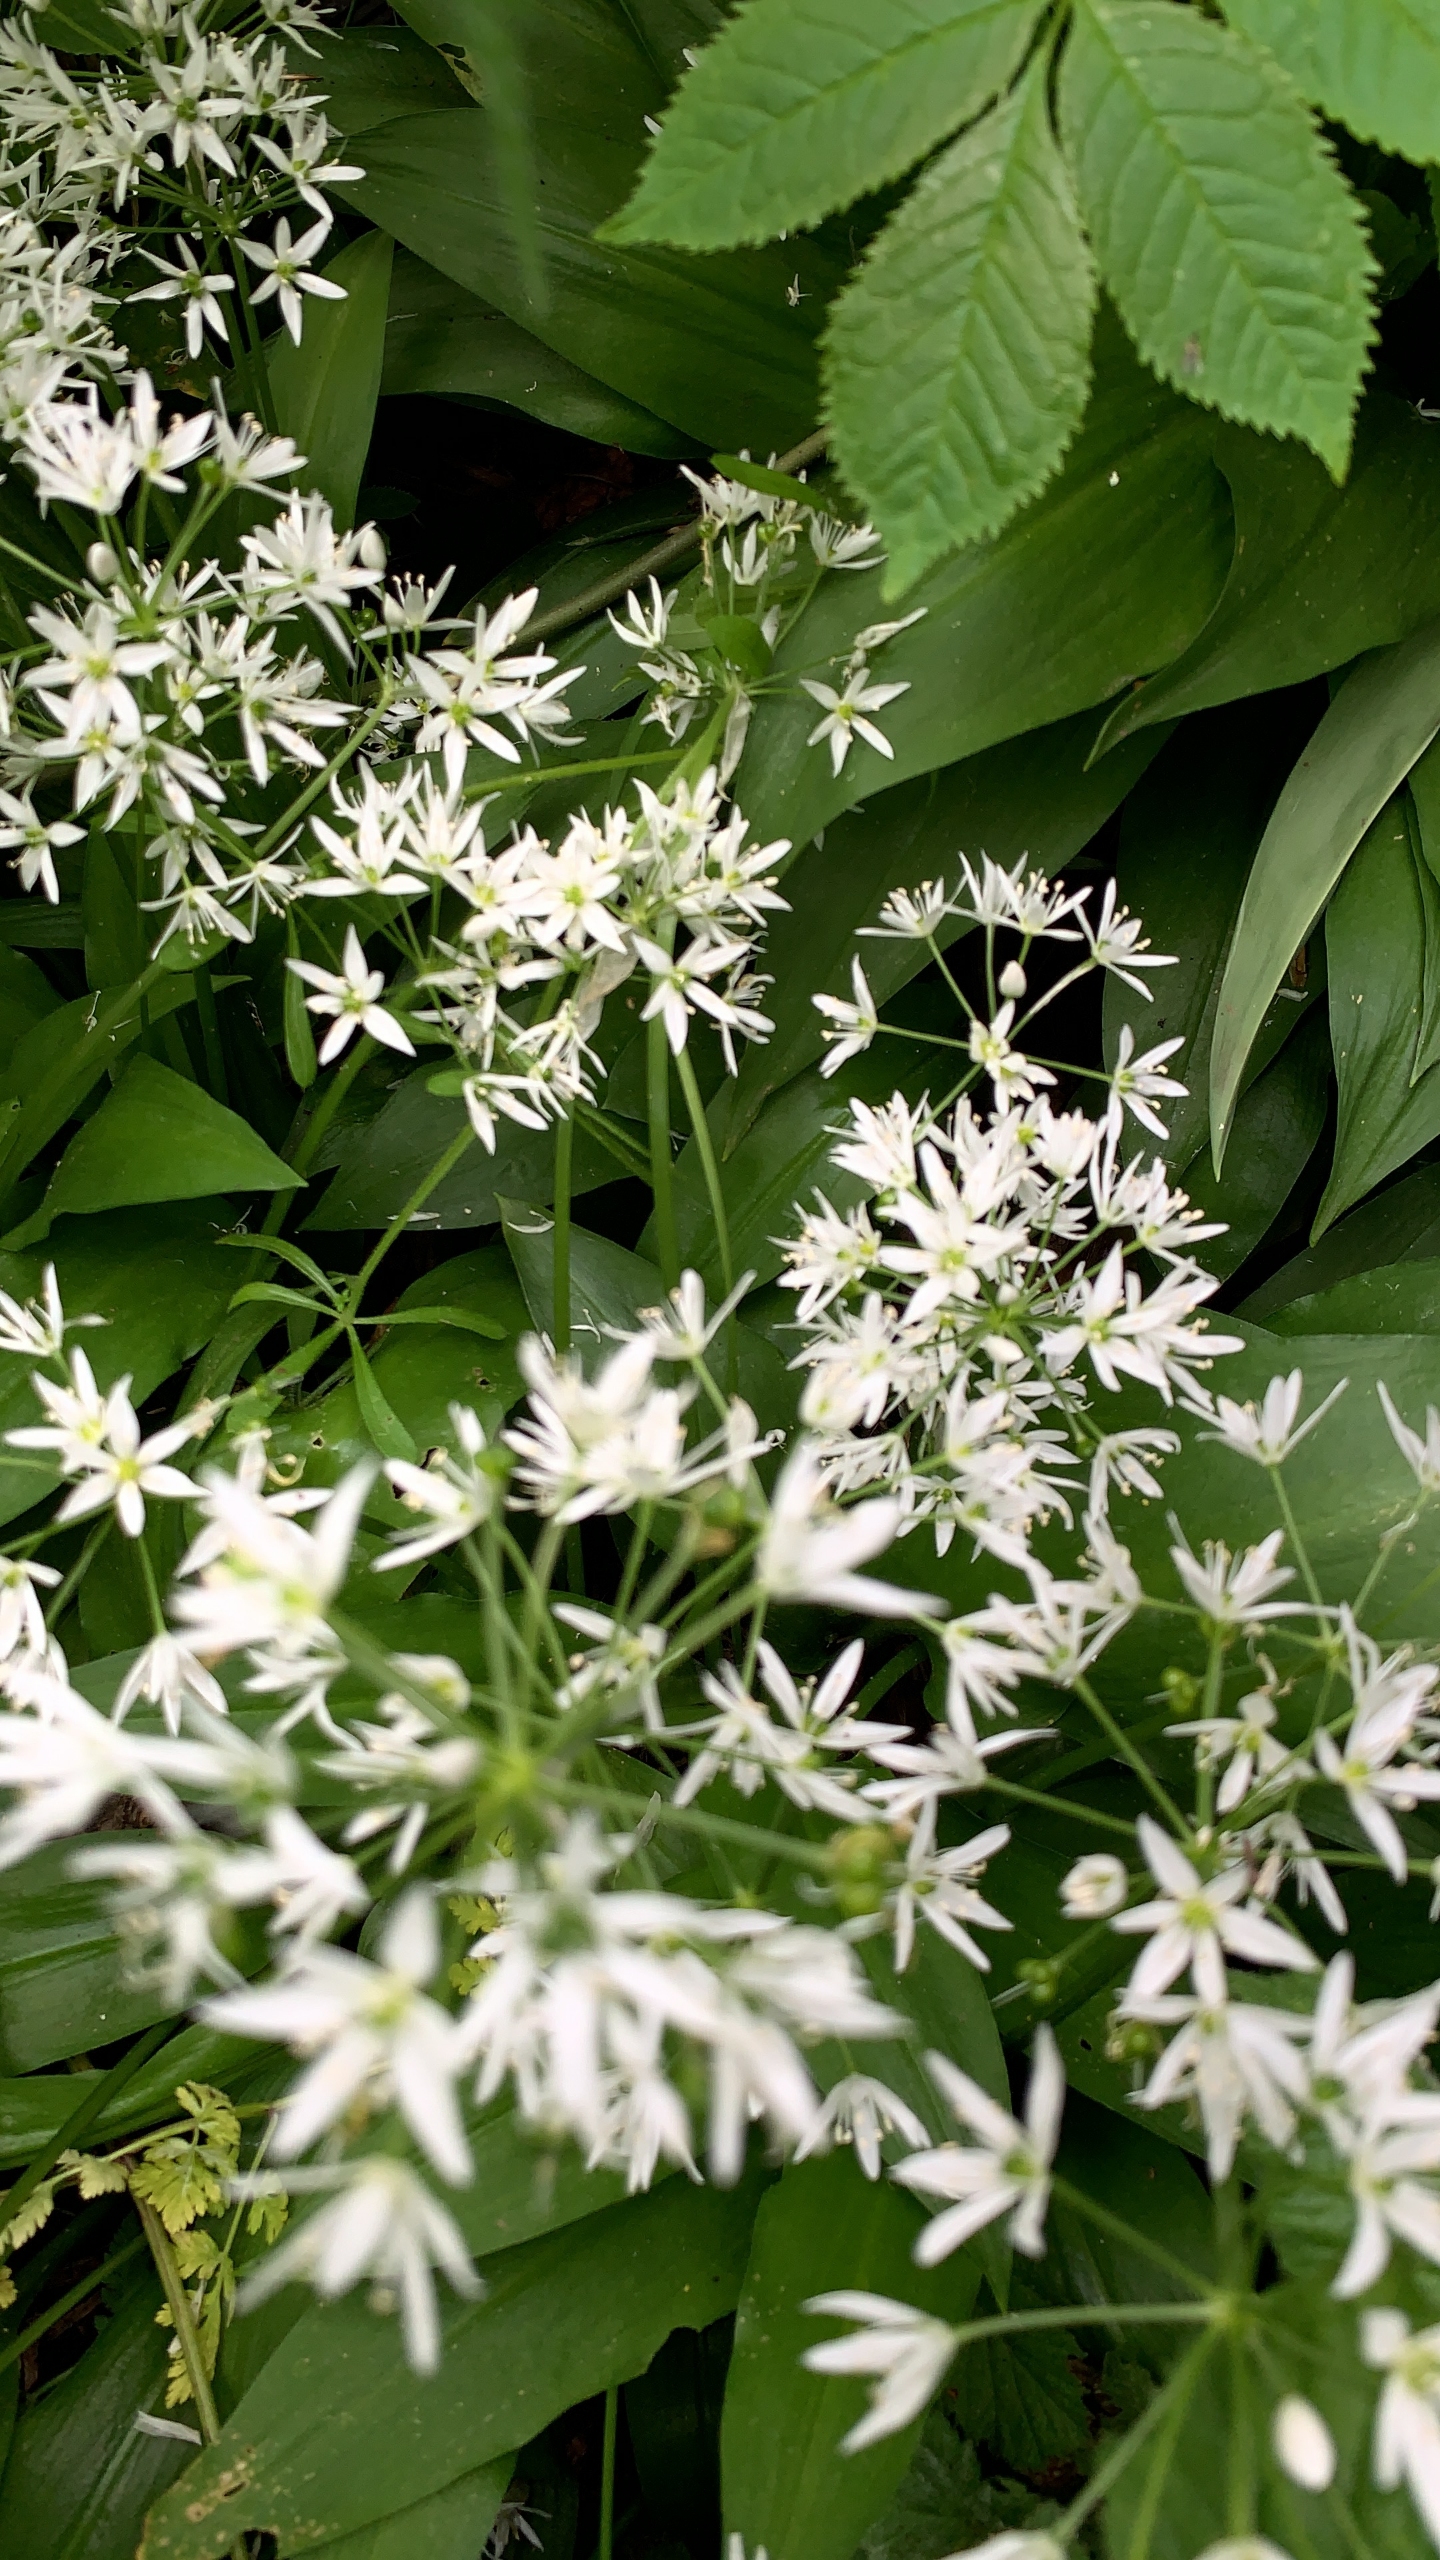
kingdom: Plantae
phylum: Tracheophyta
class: Liliopsida
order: Asparagales
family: Amaryllidaceae
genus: Allium
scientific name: Allium ursinum
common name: Rams-løg
